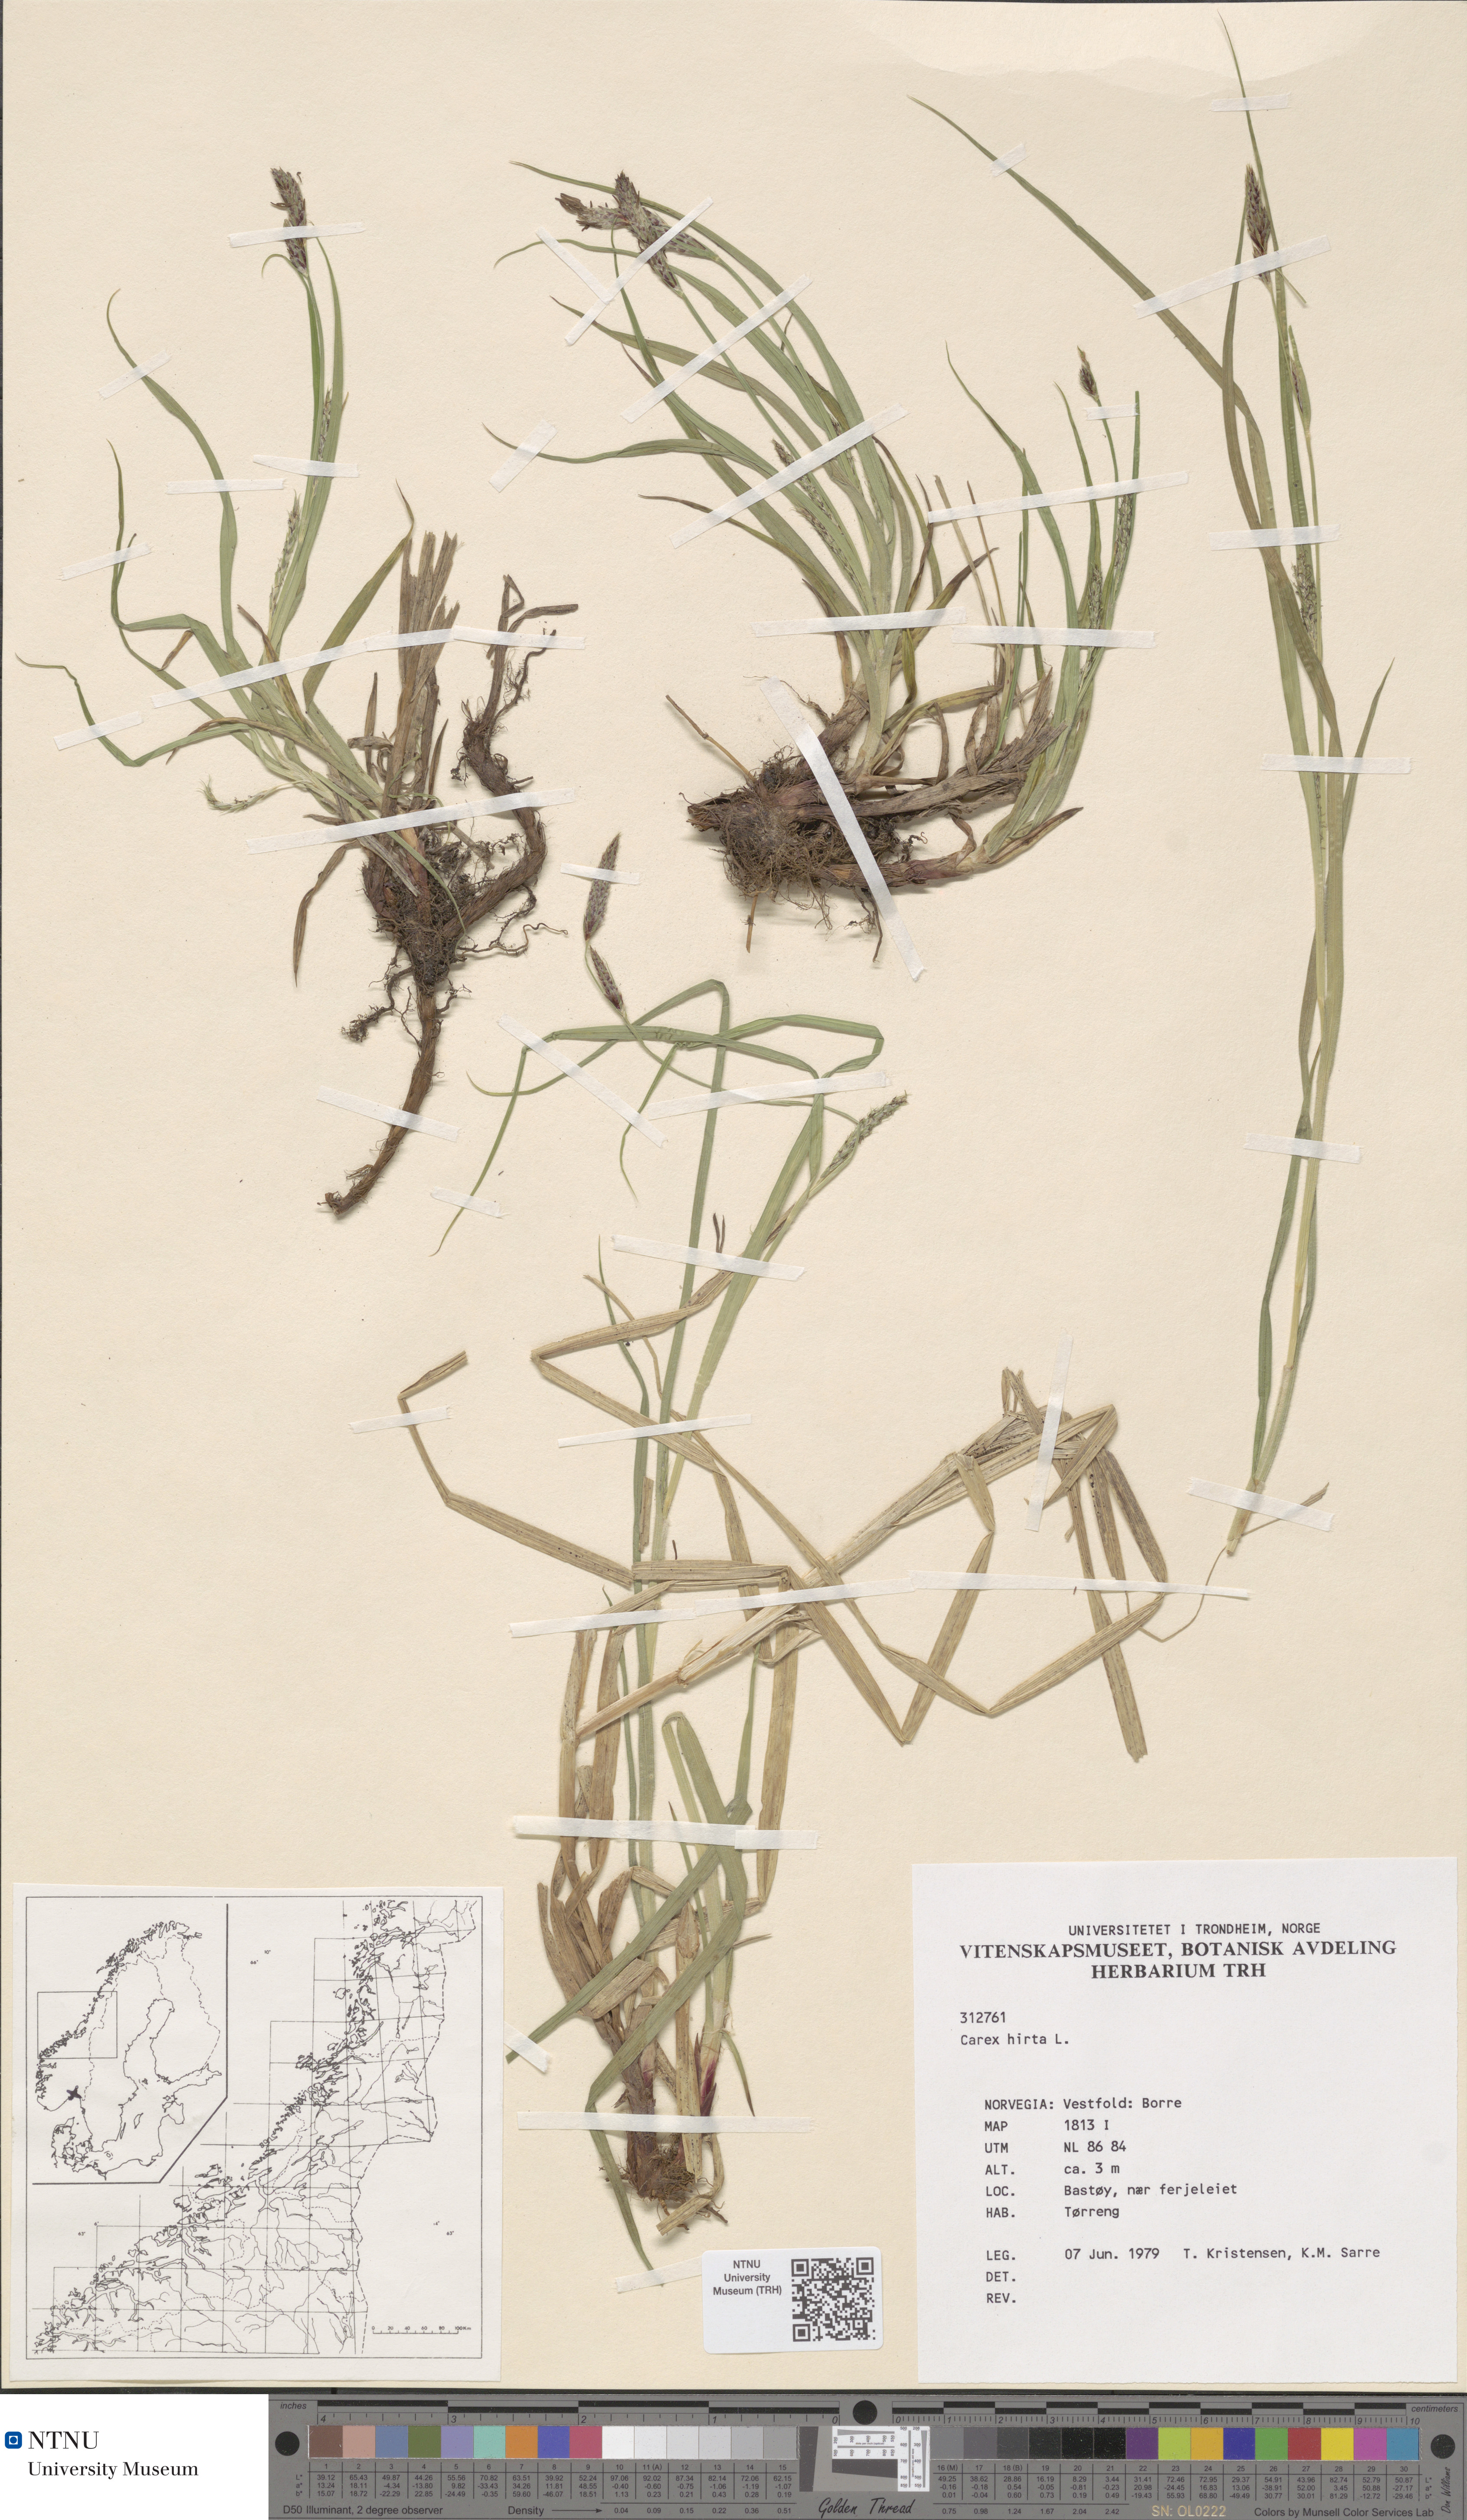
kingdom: Plantae
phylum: Tracheophyta
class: Liliopsida
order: Poales
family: Cyperaceae
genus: Carex
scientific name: Carex hirta
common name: Hairy sedge
